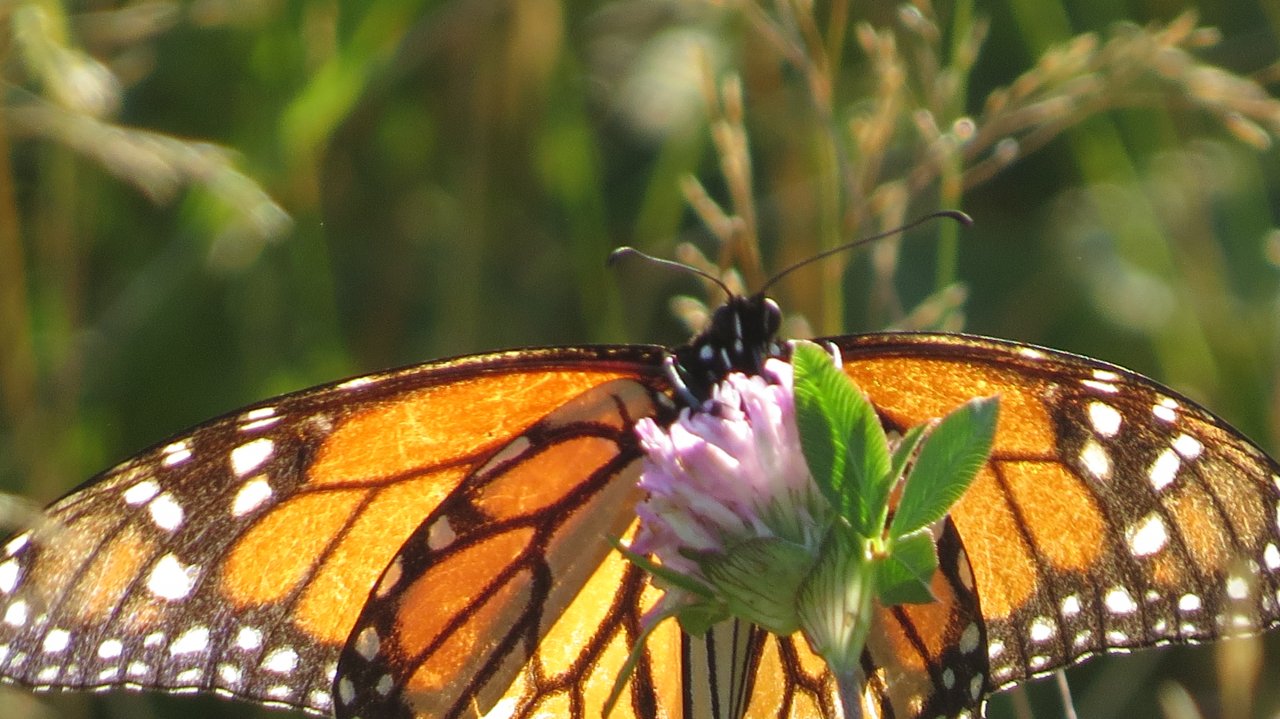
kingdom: Animalia
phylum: Arthropoda
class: Insecta
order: Lepidoptera
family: Nymphalidae
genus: Danaus
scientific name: Danaus plexippus
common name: Monarch
